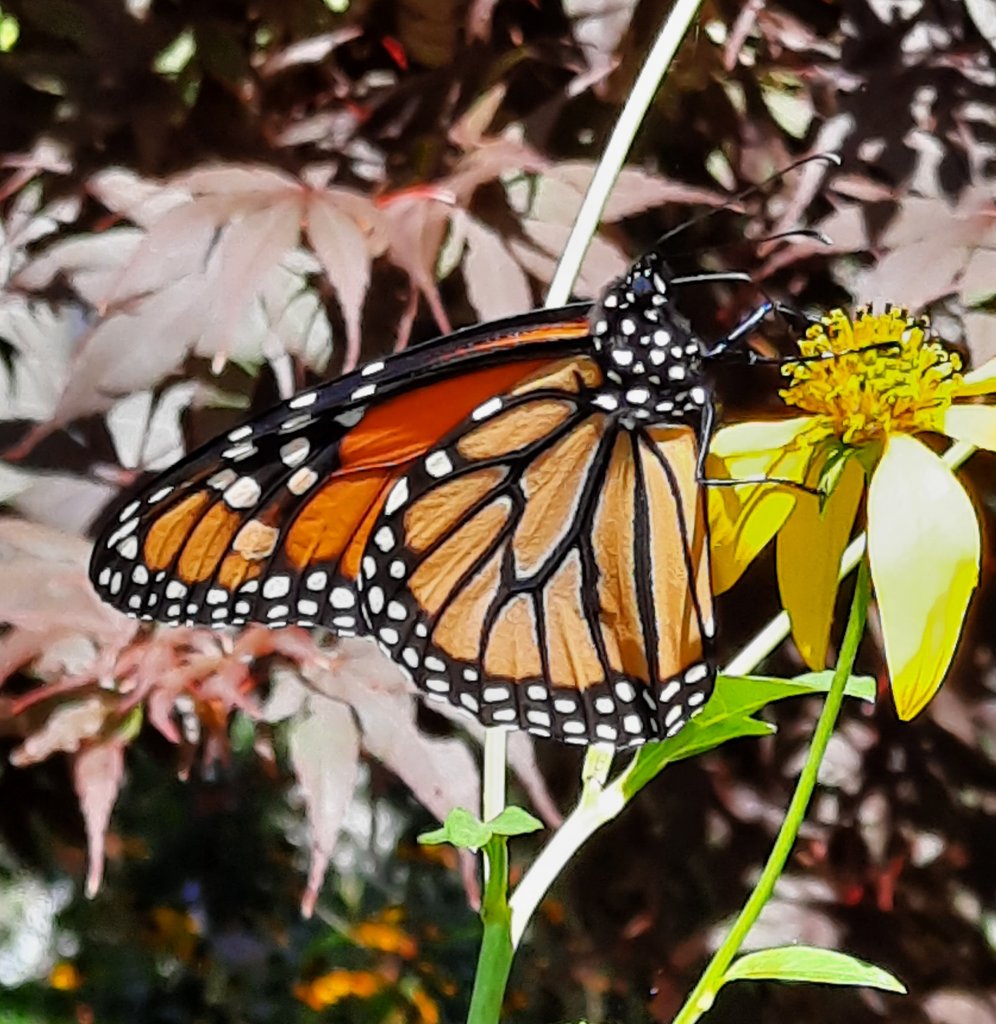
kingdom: Animalia
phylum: Arthropoda
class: Insecta
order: Lepidoptera
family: Nymphalidae
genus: Danaus
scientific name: Danaus plexippus
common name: Monarch
